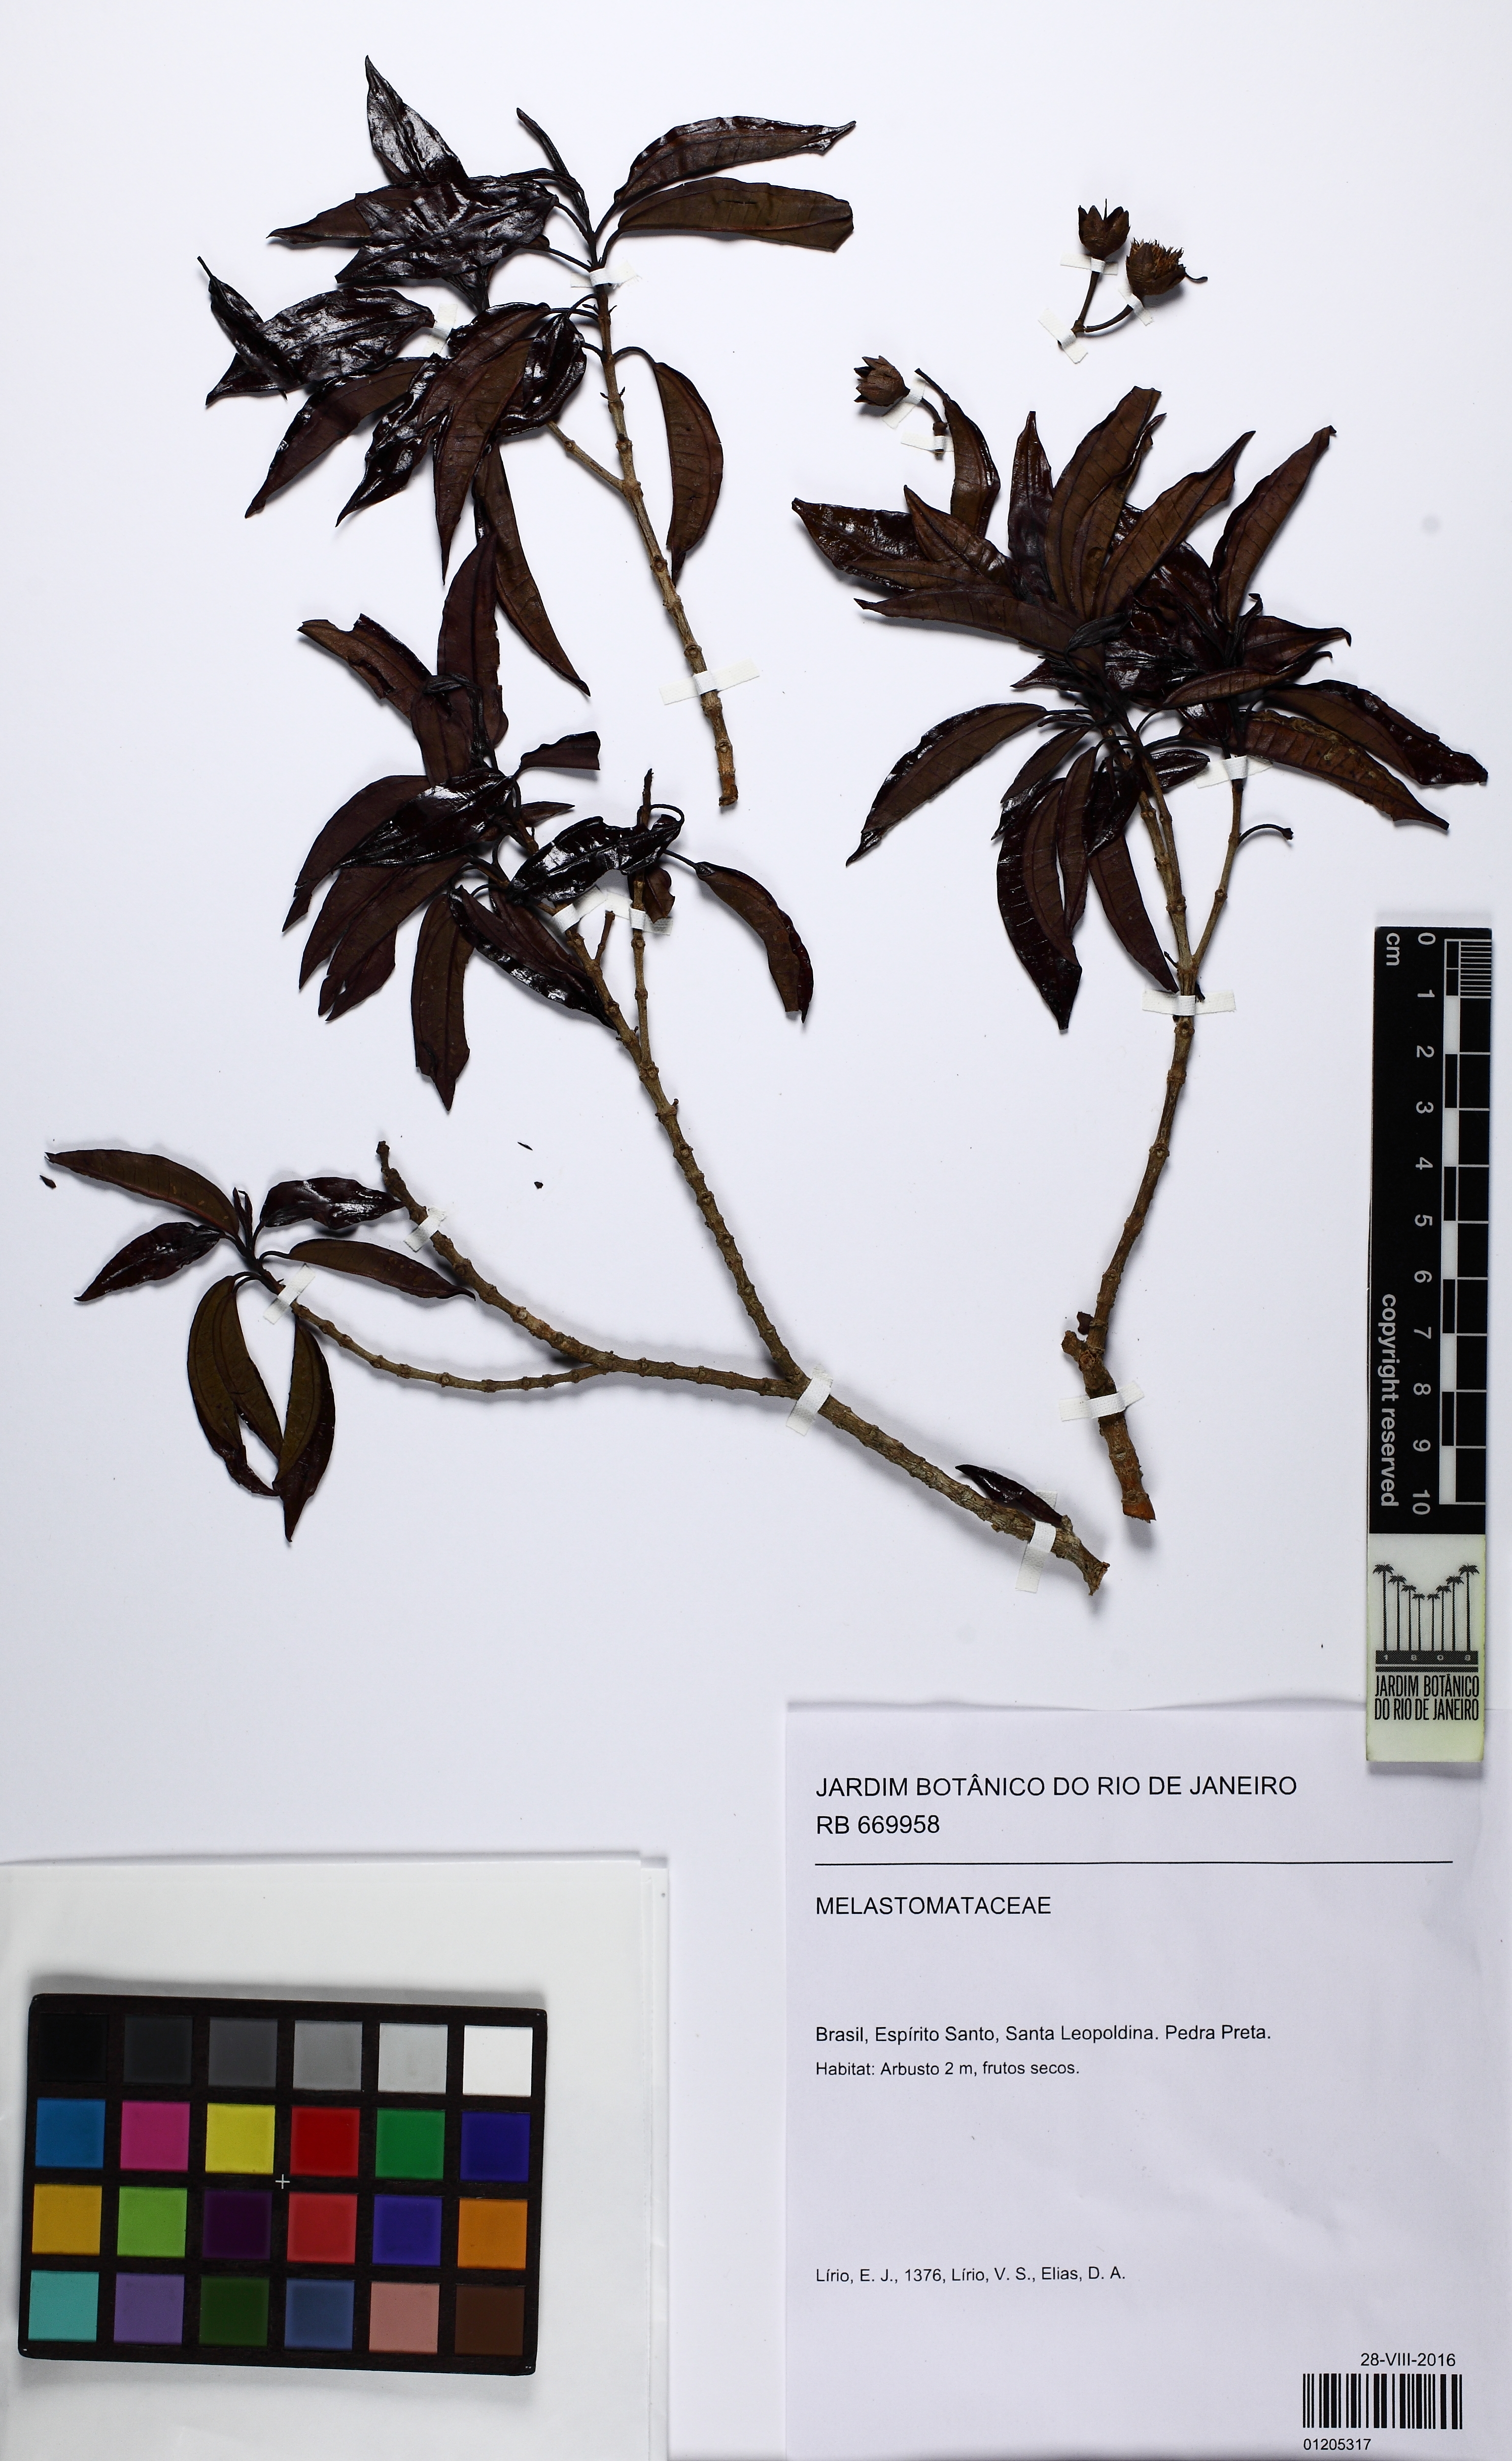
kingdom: Plantae
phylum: Tracheophyta
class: Magnoliopsida
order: Myrtales
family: Melastomataceae
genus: Huberia
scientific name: Huberia espiritosantensis
